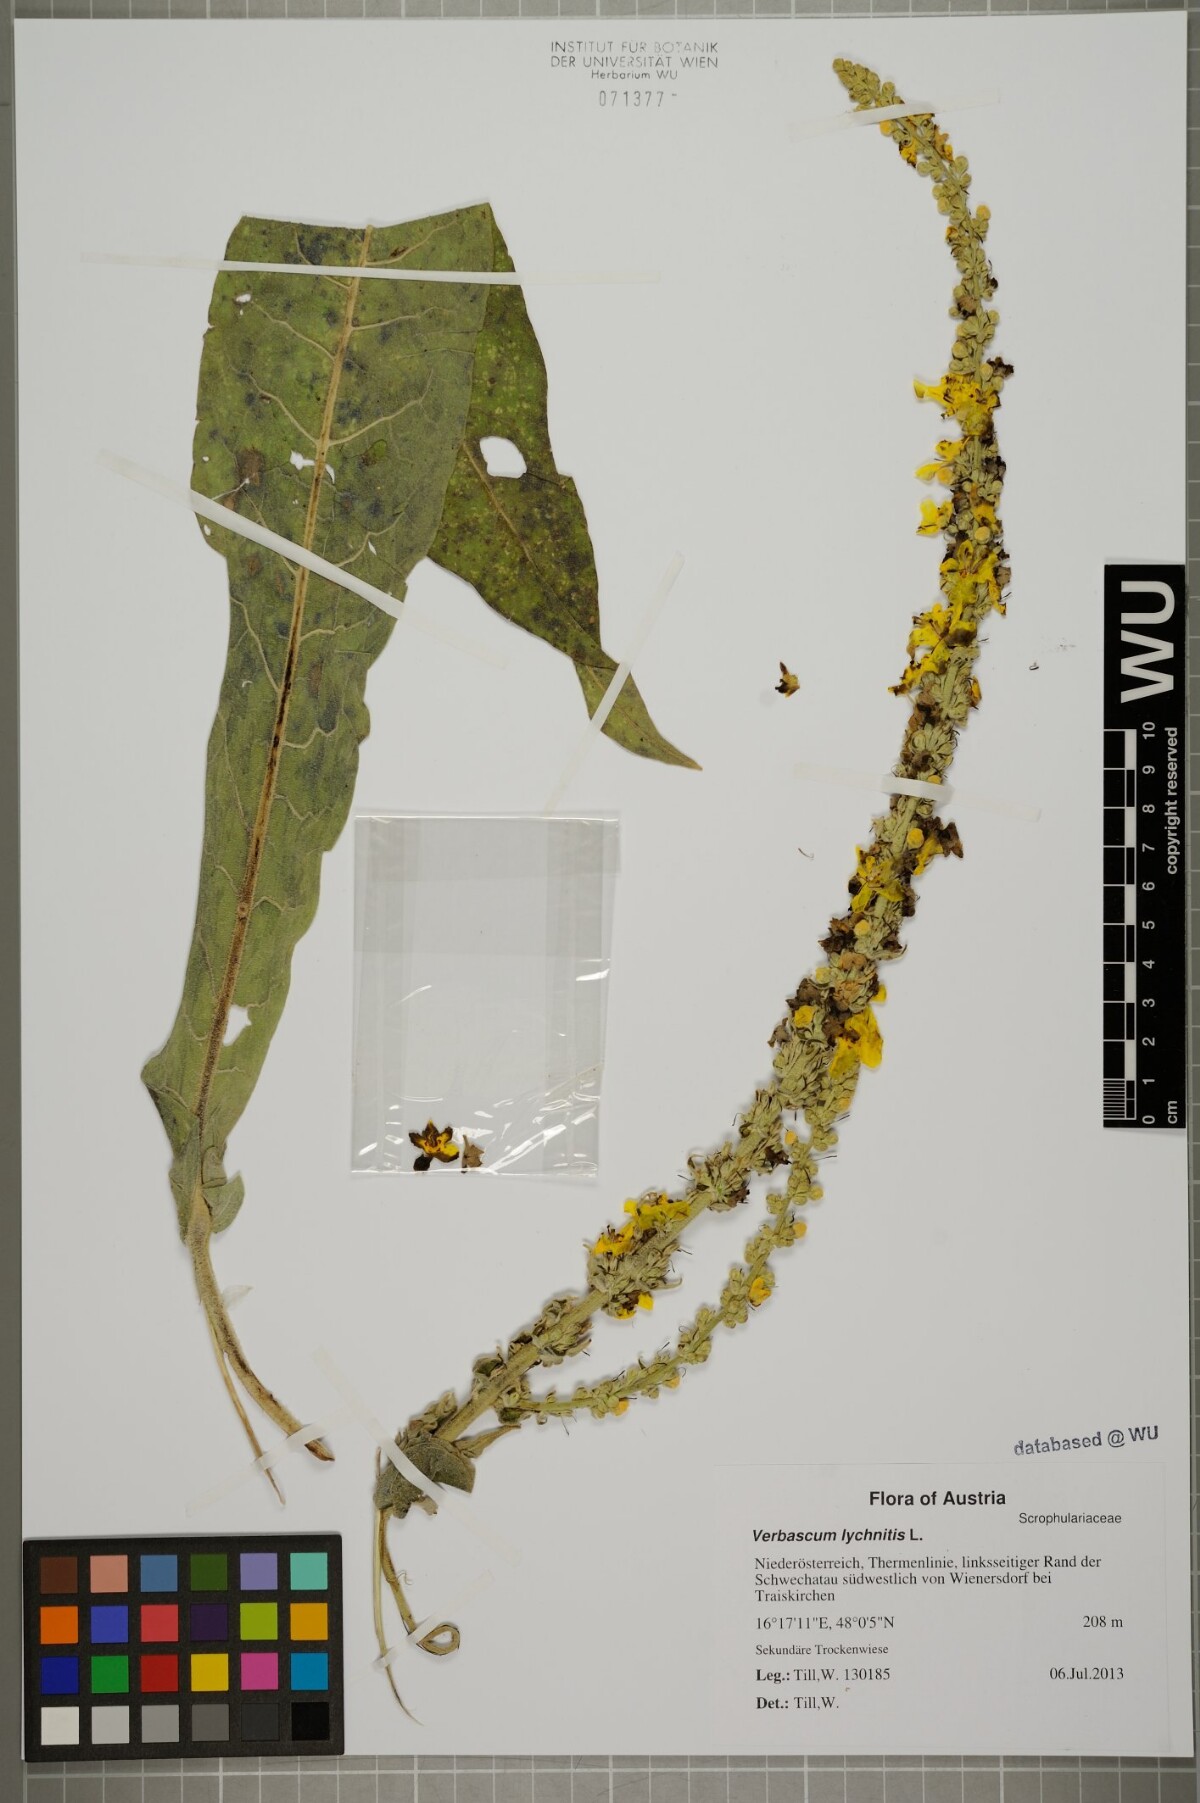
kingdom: Plantae
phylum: Tracheophyta
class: Magnoliopsida
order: Lamiales
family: Scrophulariaceae
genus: Verbascum
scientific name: Verbascum lychnitis
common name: White mullein
